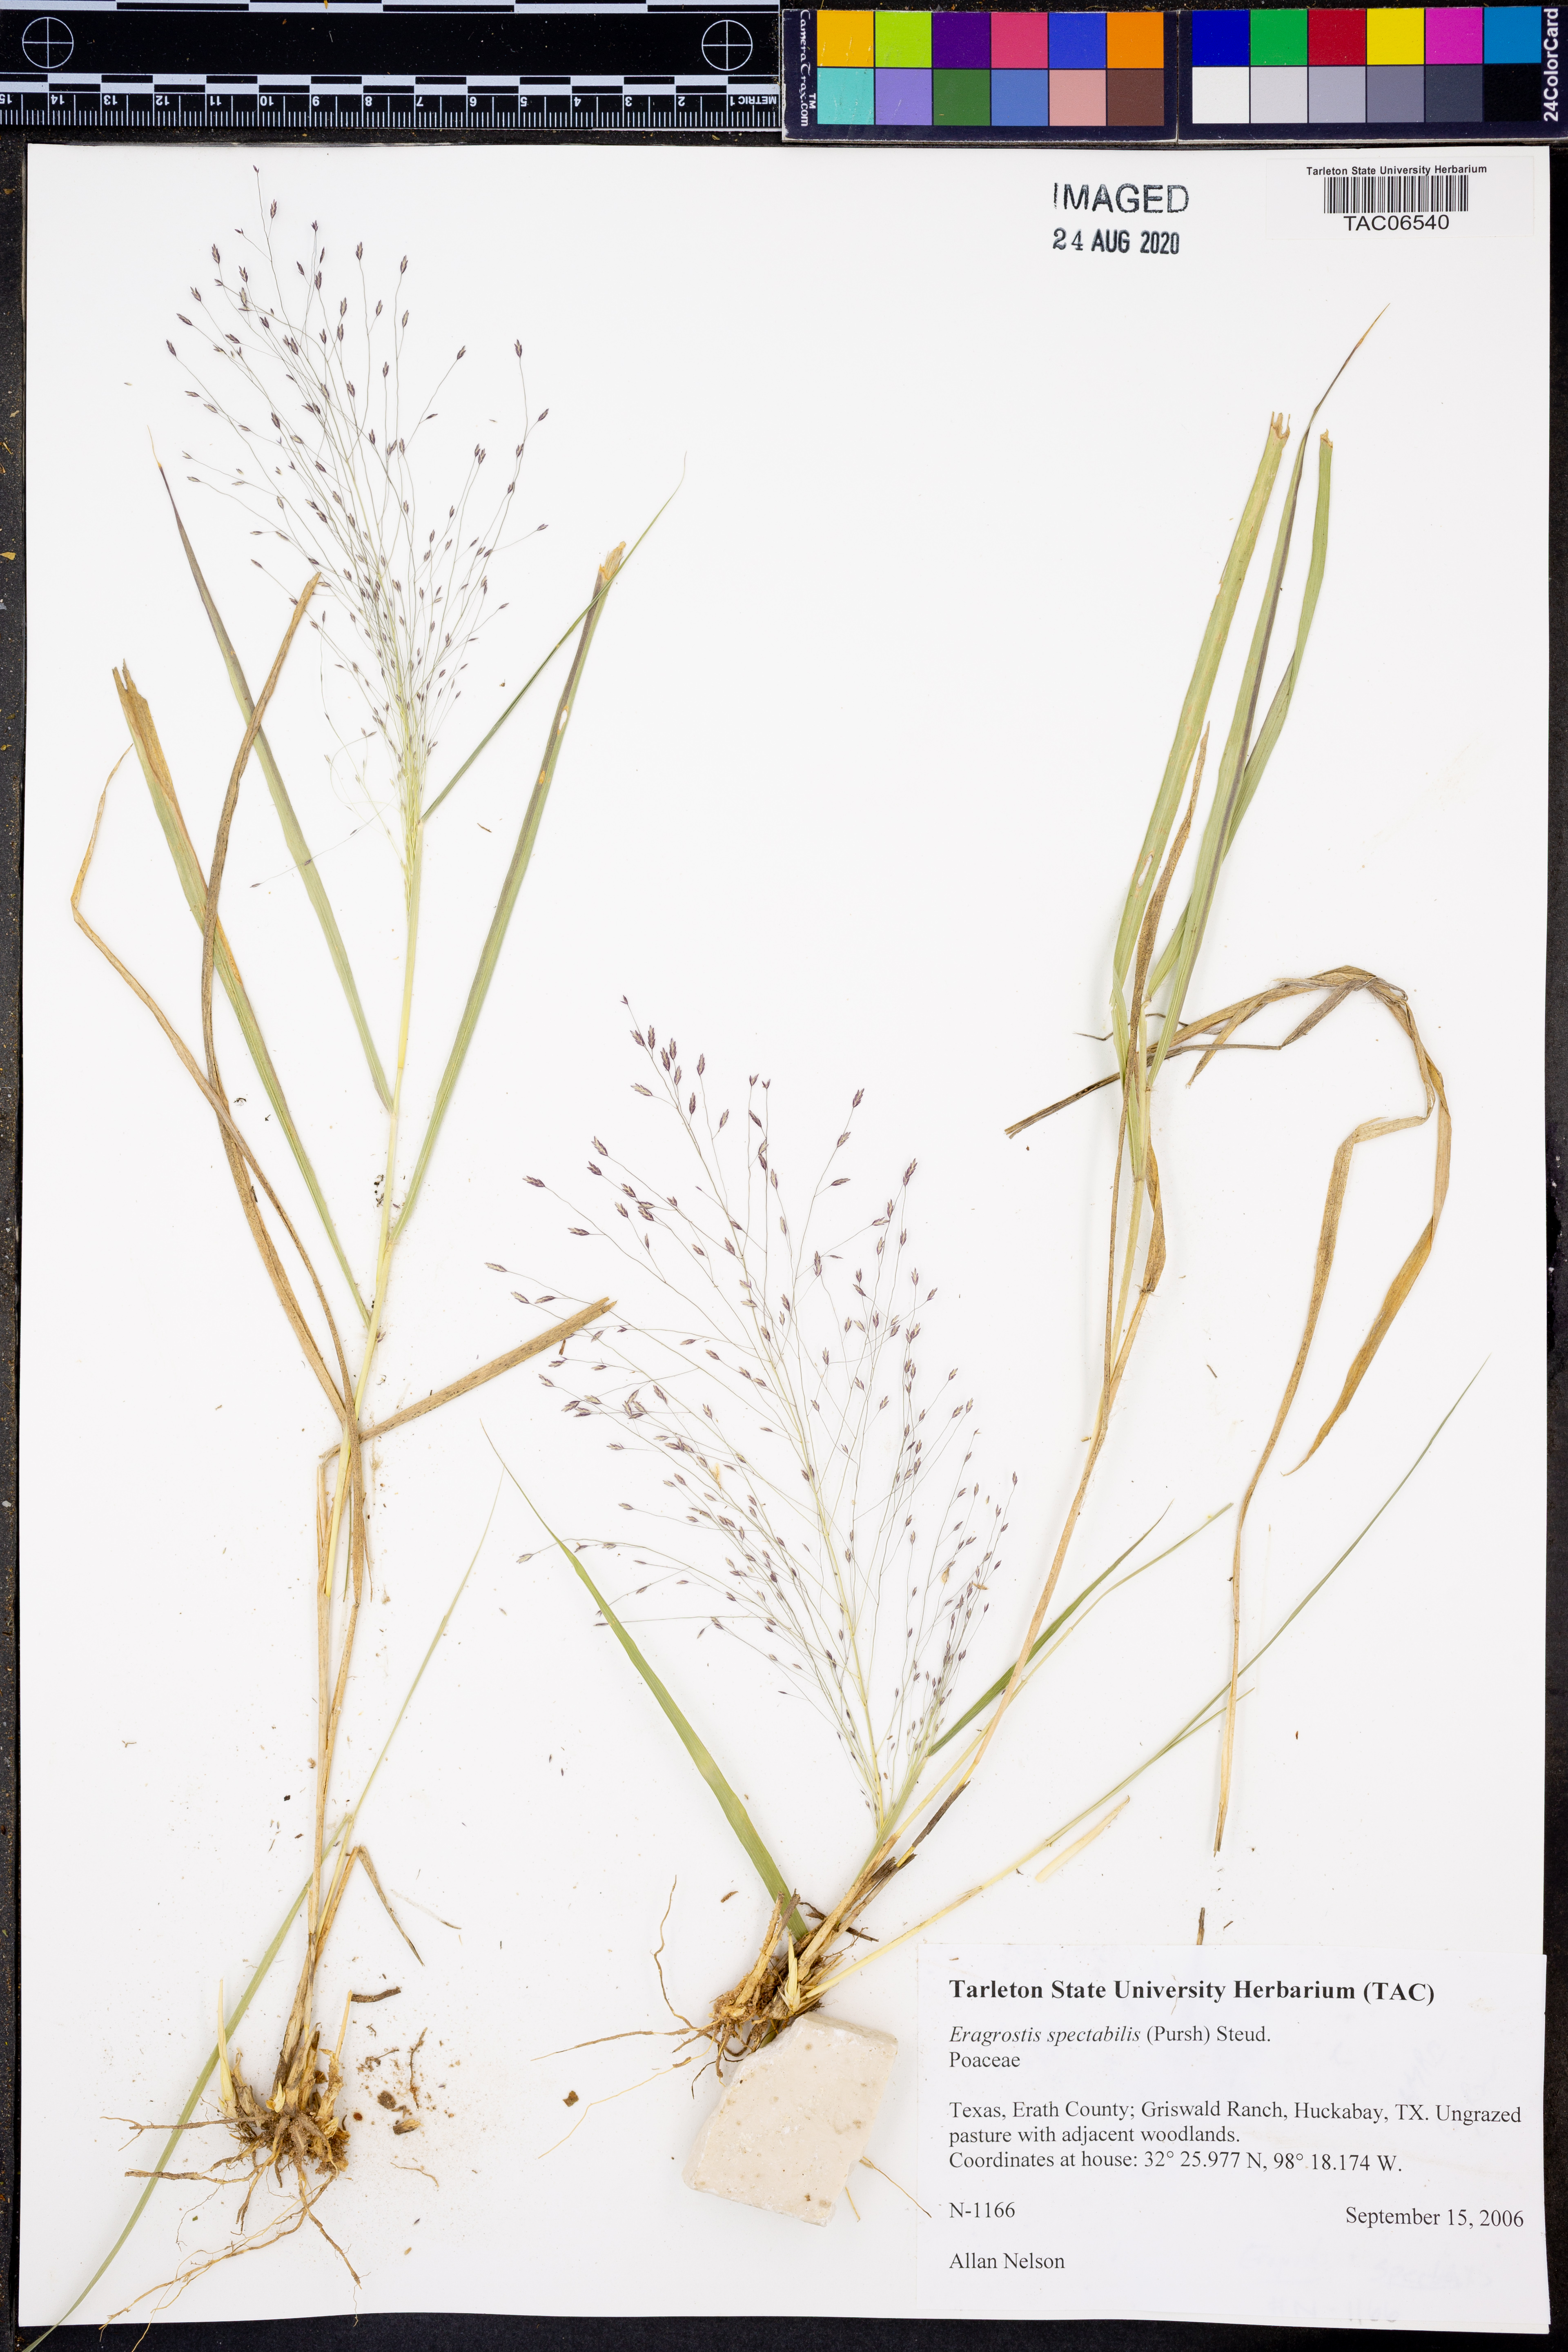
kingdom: Plantae
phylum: Tracheophyta
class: Liliopsida
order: Poales
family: Poaceae
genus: Eragrostis
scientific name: Eragrostis spectabilis
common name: Petticoat-climber
